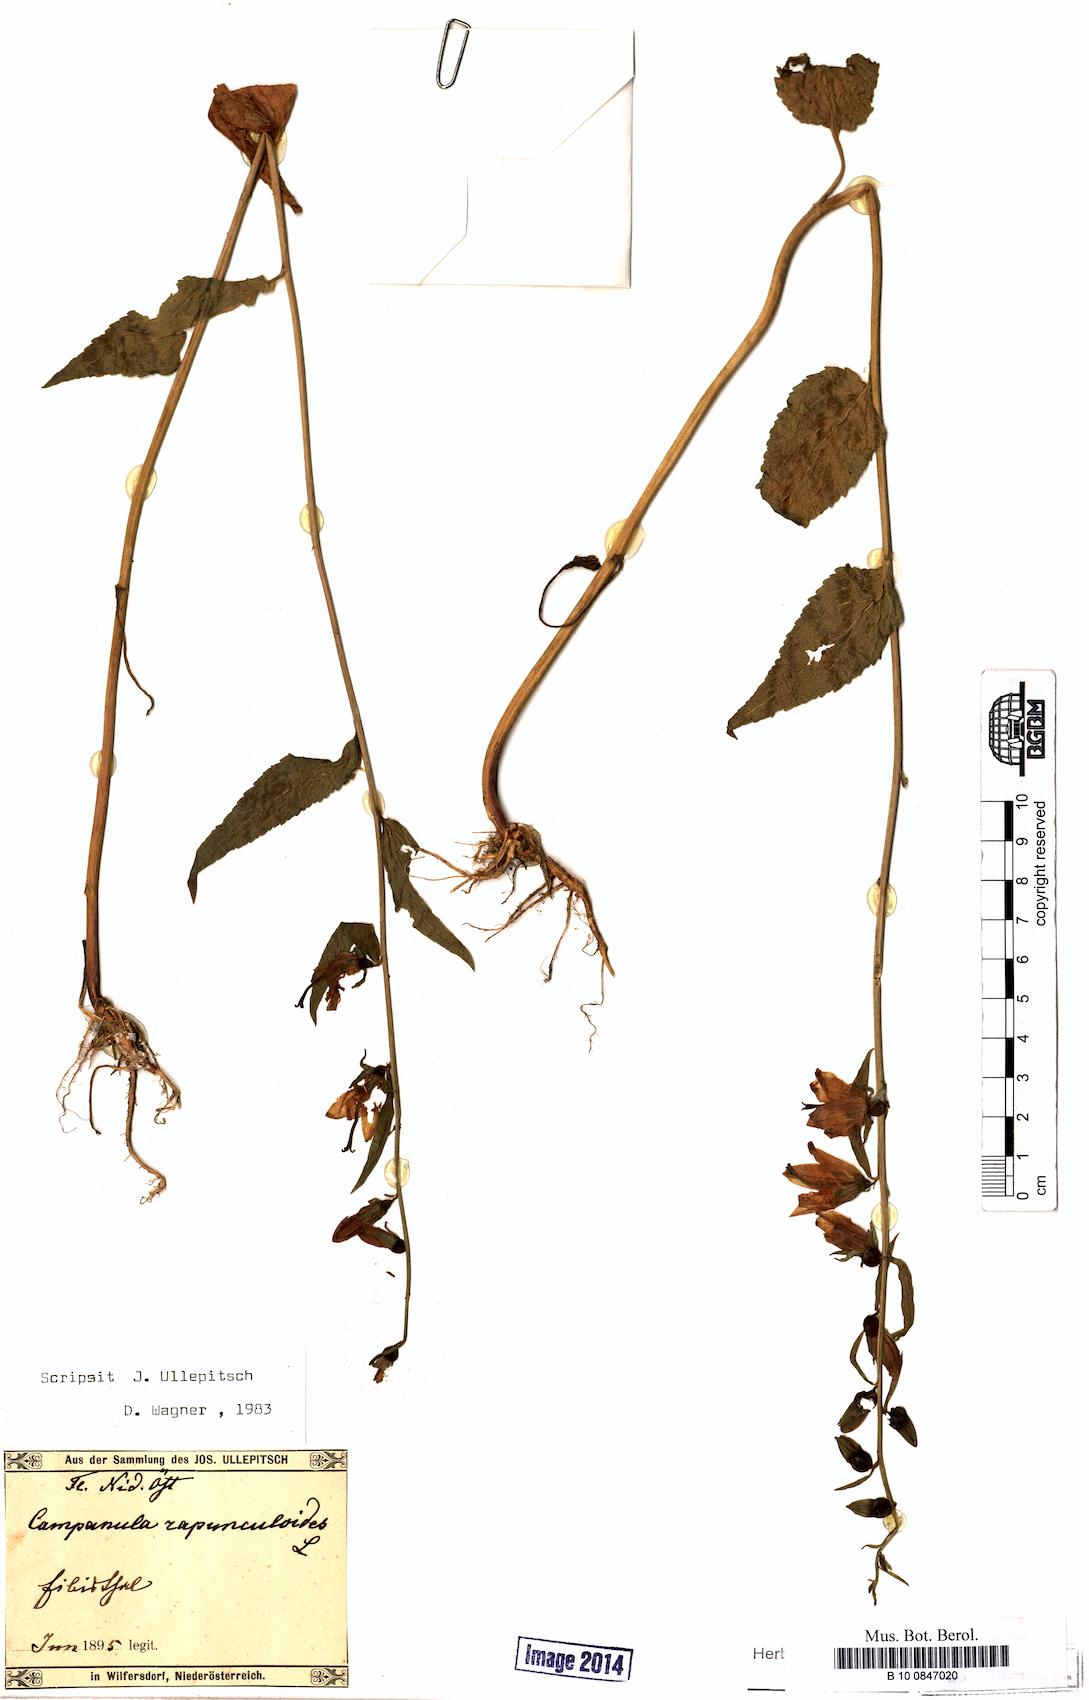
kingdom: Plantae
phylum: Tracheophyta
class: Magnoliopsida
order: Asterales
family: Campanulaceae
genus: Campanula
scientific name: Campanula rapunculoides
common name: Creeping bellflower
